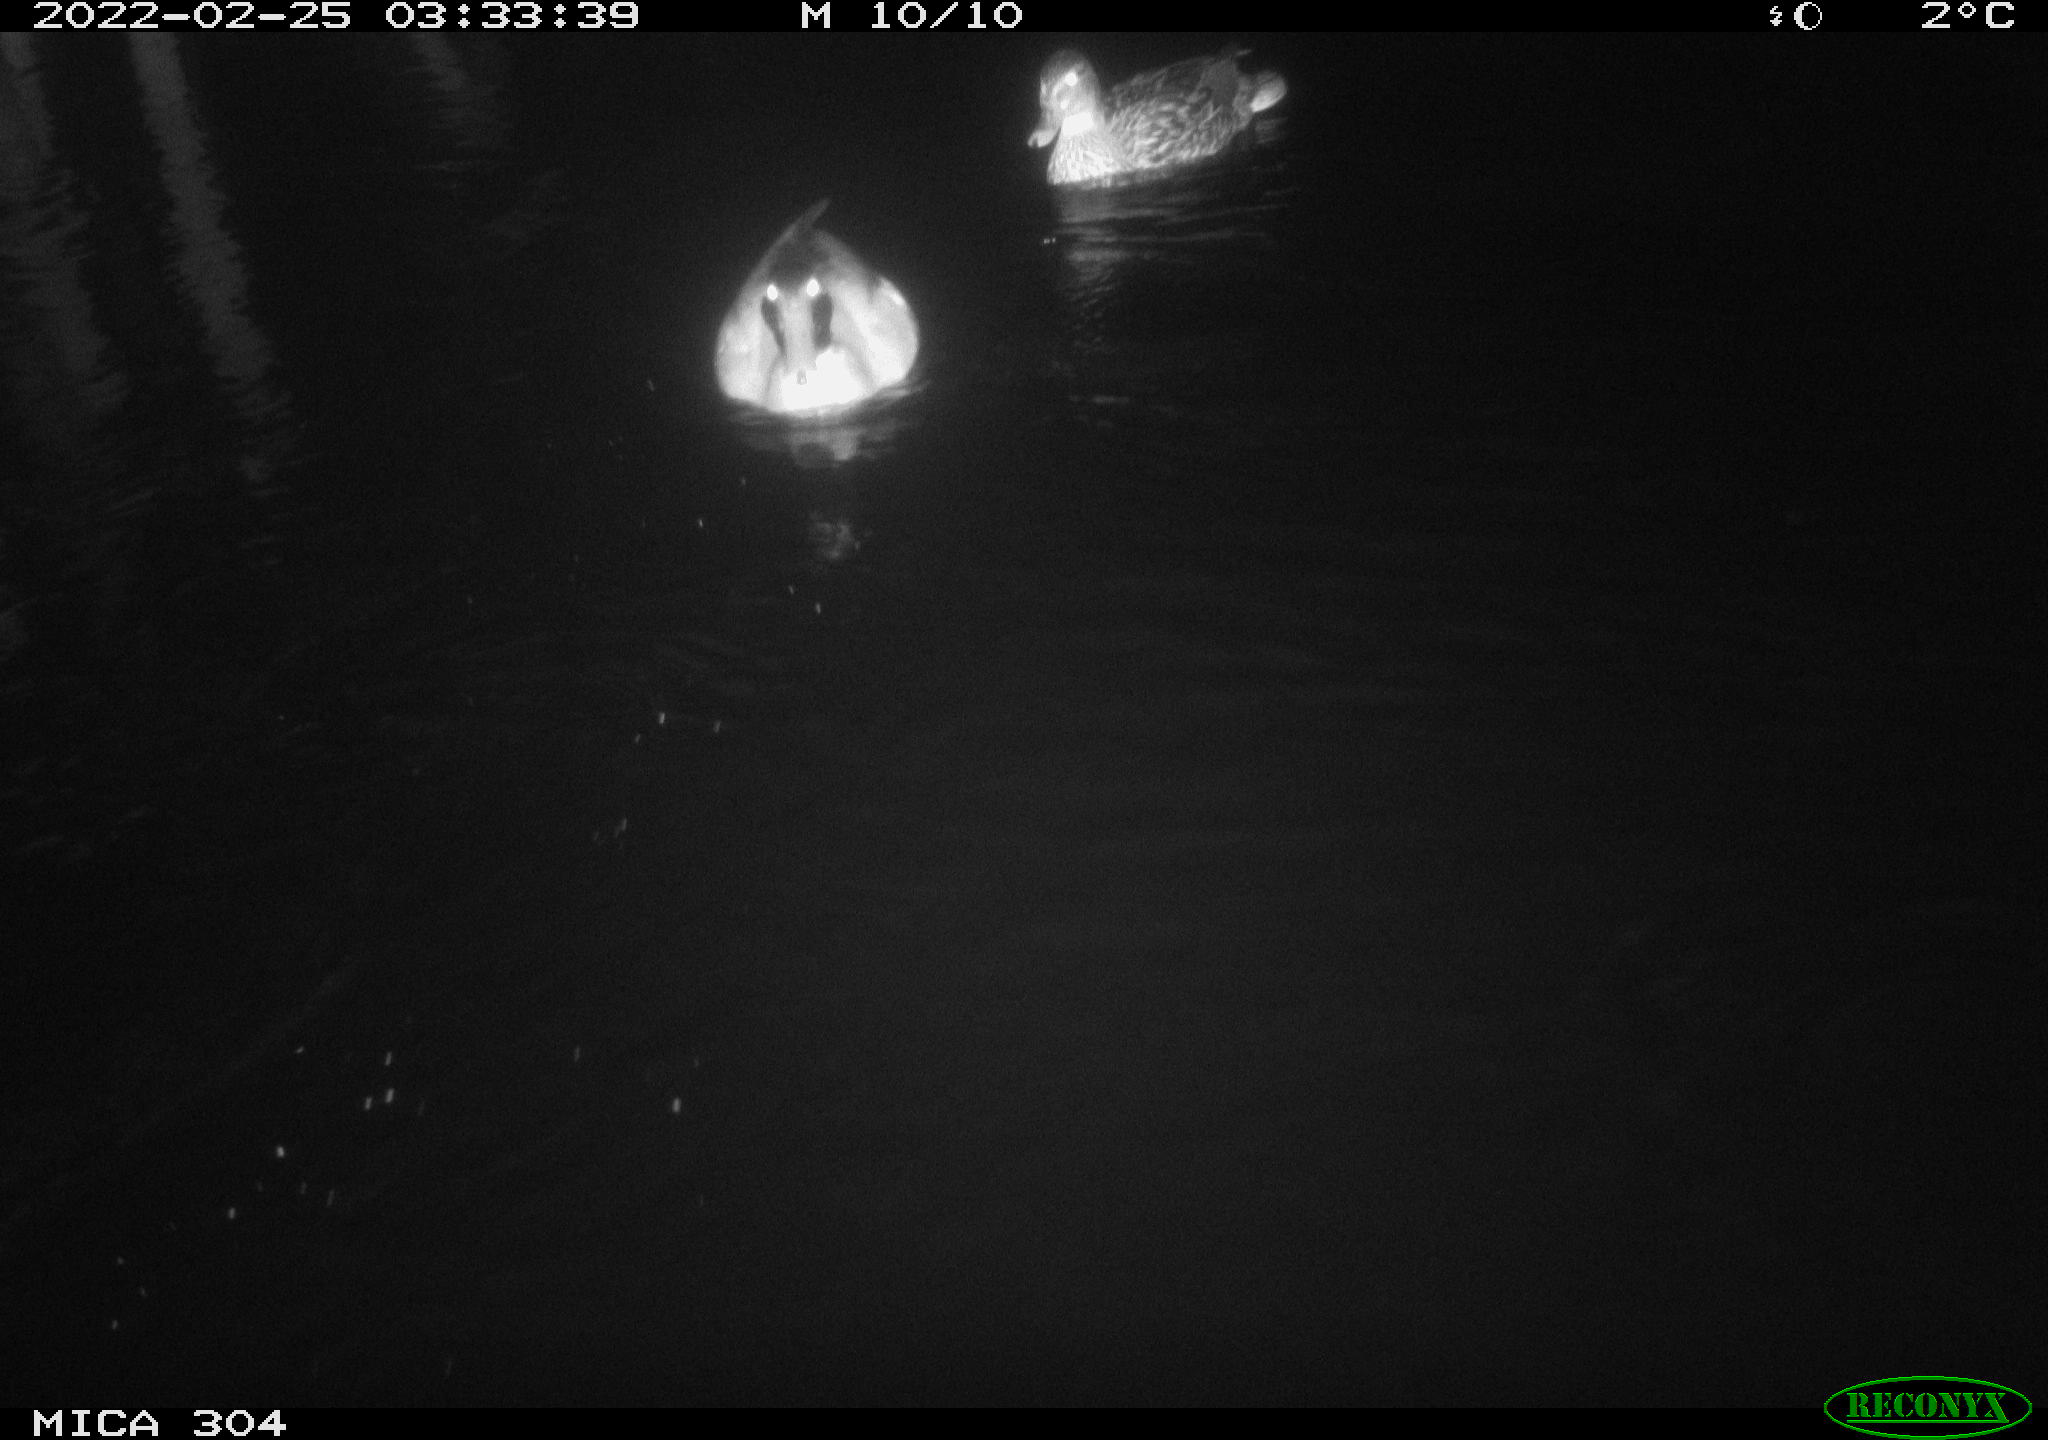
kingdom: Animalia
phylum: Chordata
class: Aves
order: Anseriformes
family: Anatidae
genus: Anas
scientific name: Anas platyrhynchos
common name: Mallard
